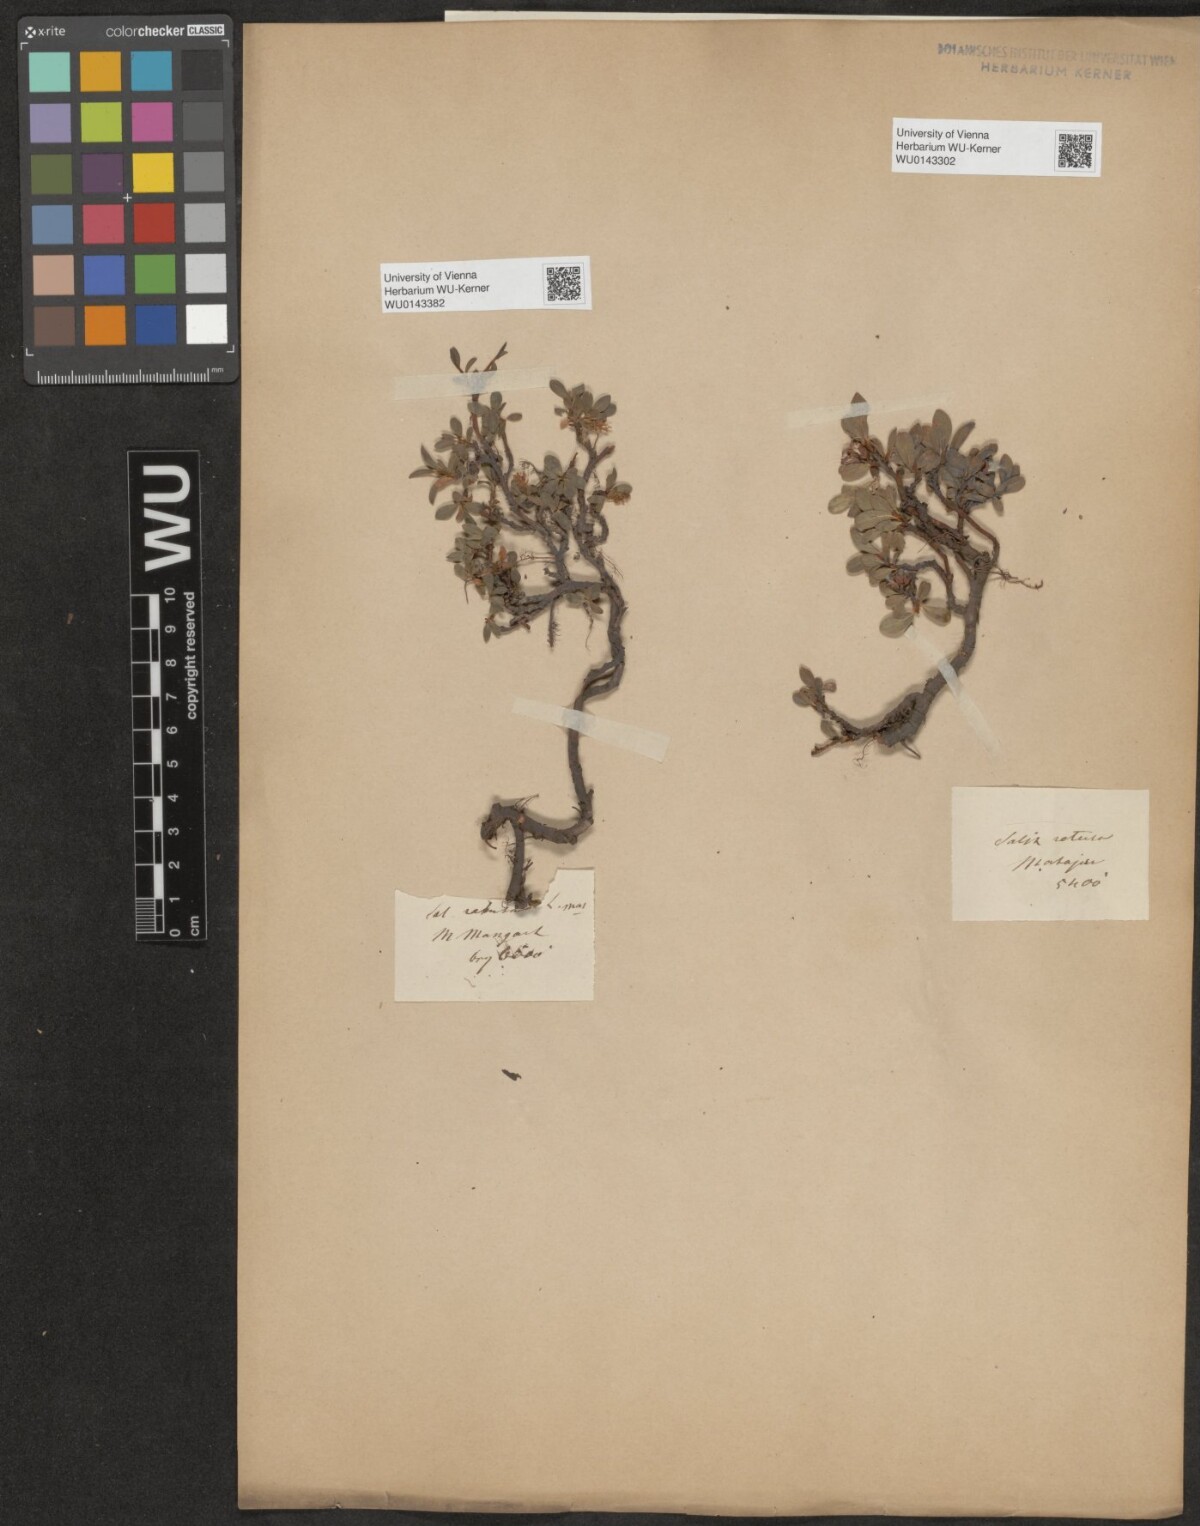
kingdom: Plantae
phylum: Tracheophyta
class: Magnoliopsida
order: Malpighiales
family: Salicaceae
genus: Salix
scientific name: Salix retusa
